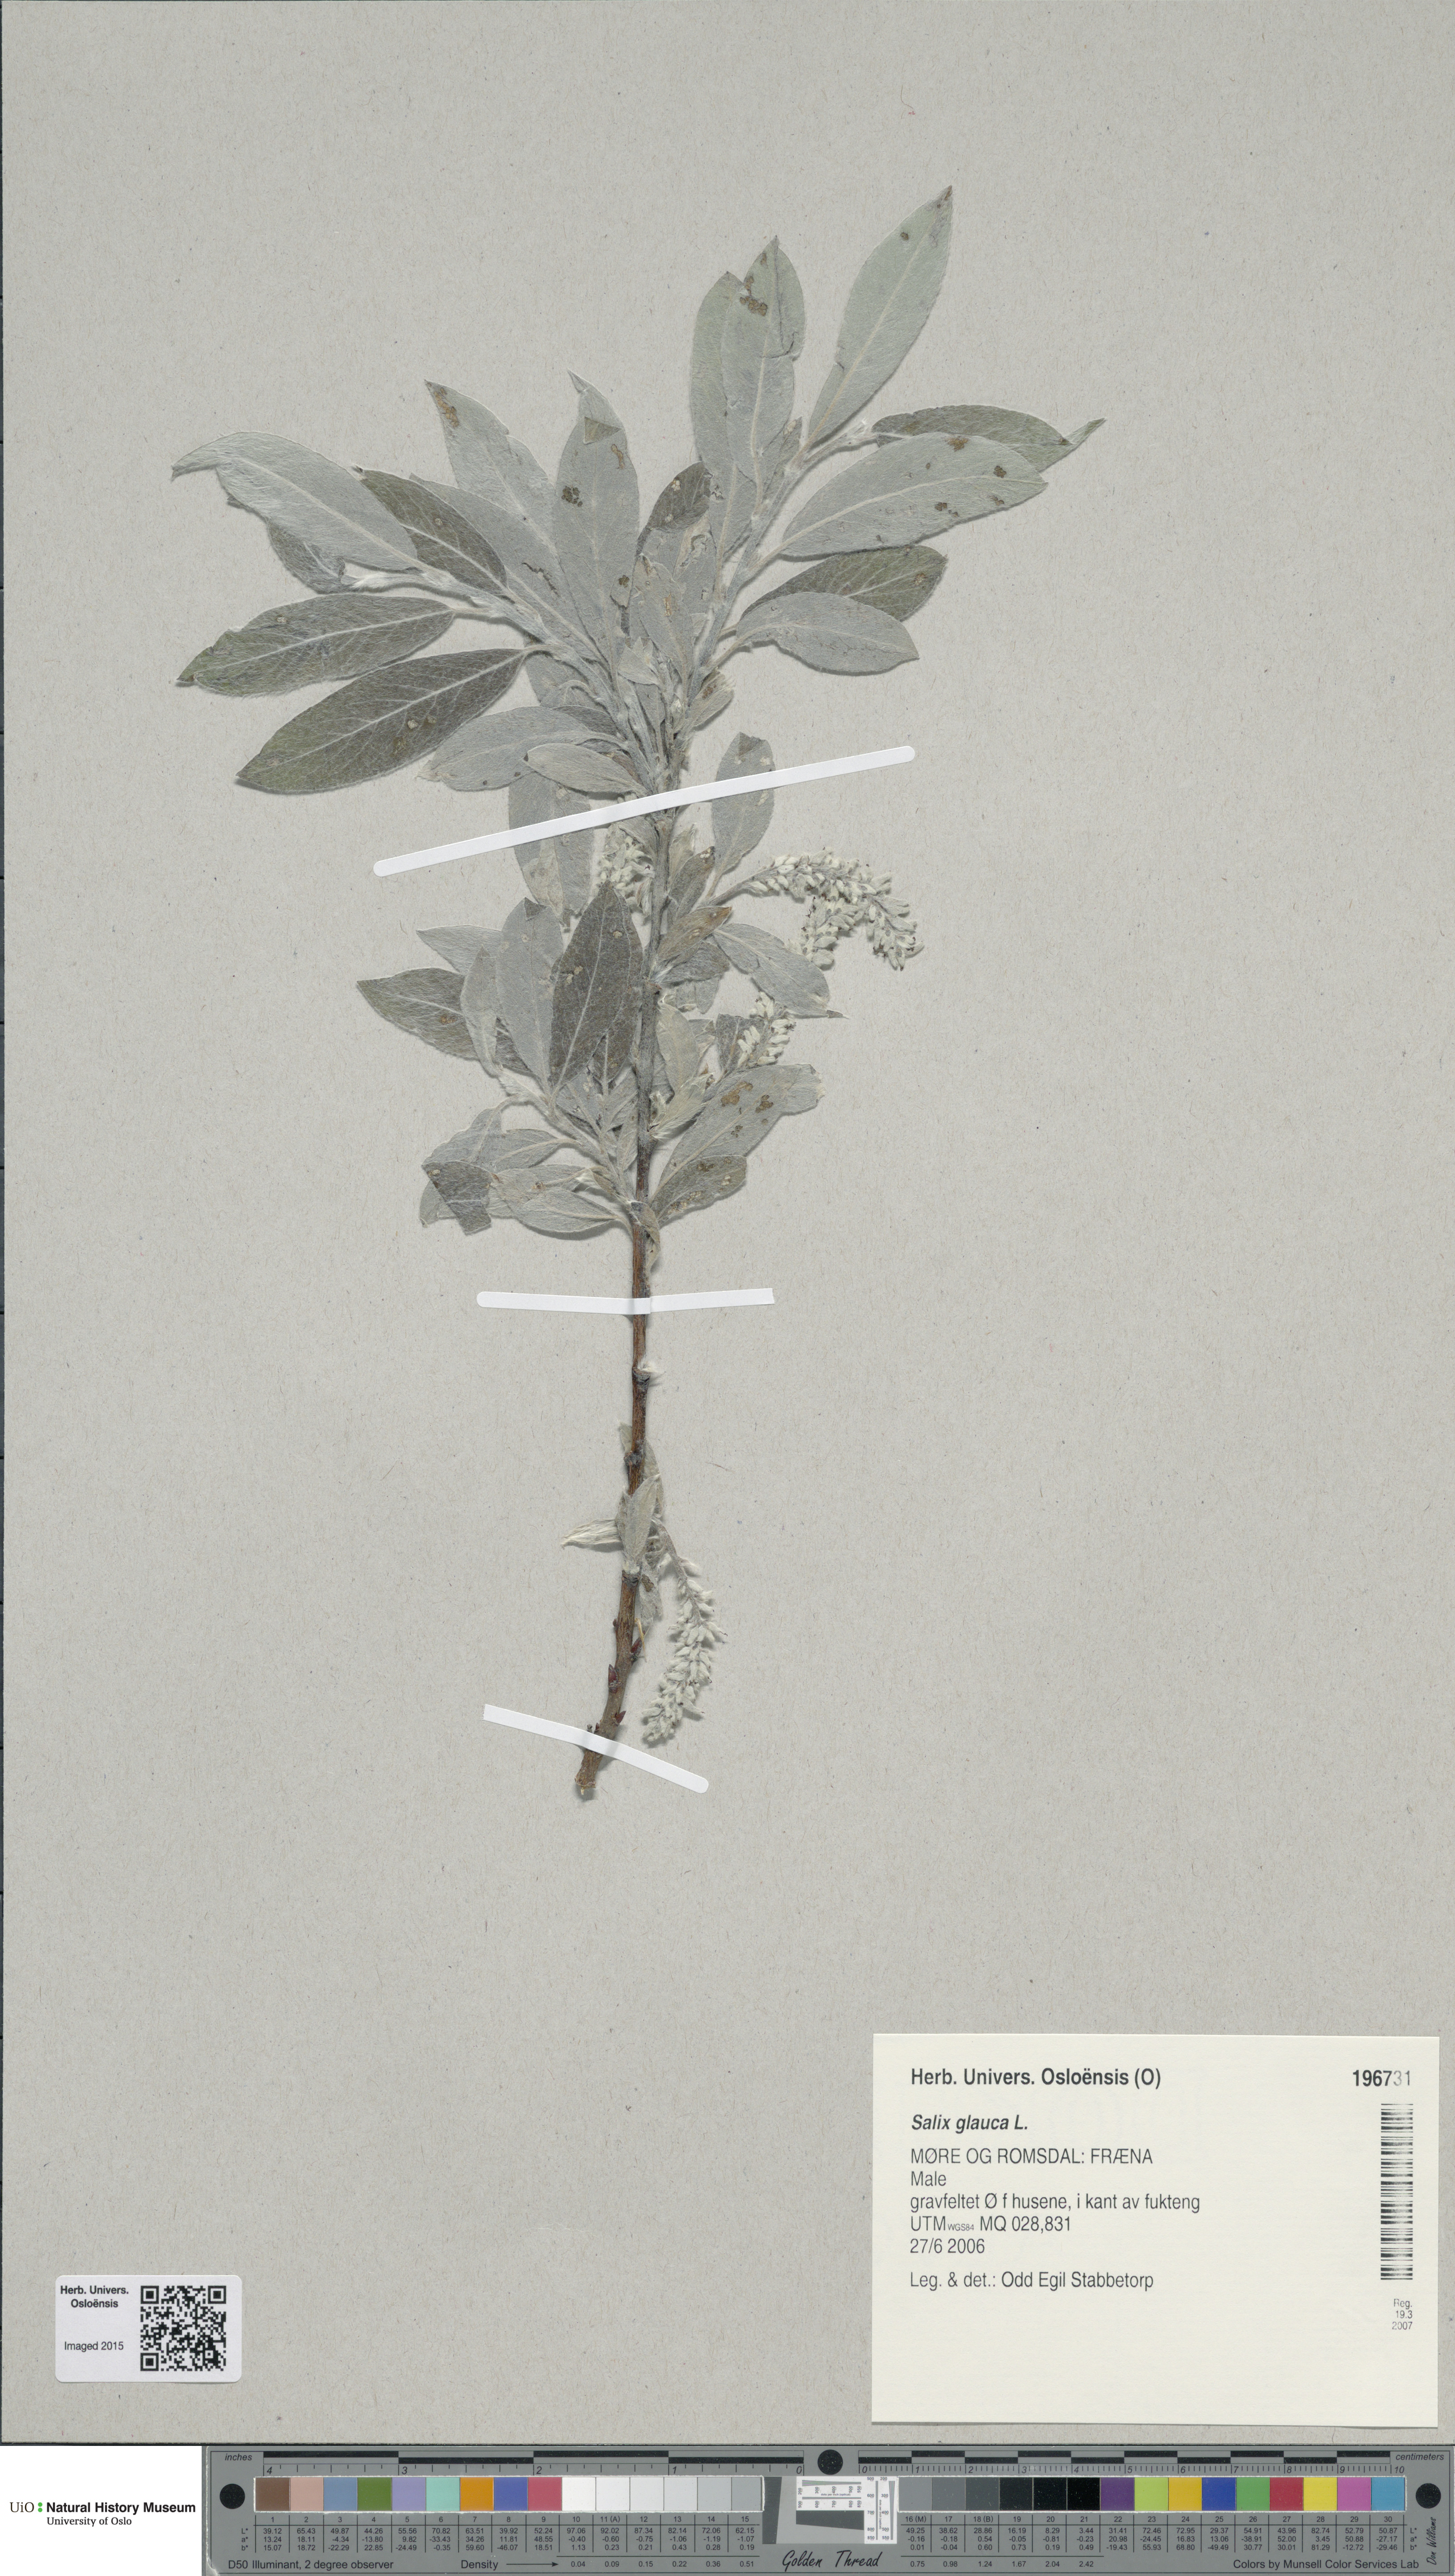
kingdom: Plantae
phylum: Tracheophyta
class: Magnoliopsida
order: Malpighiales
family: Salicaceae
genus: Salix
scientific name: Salix glauca
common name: Glaucous willow
